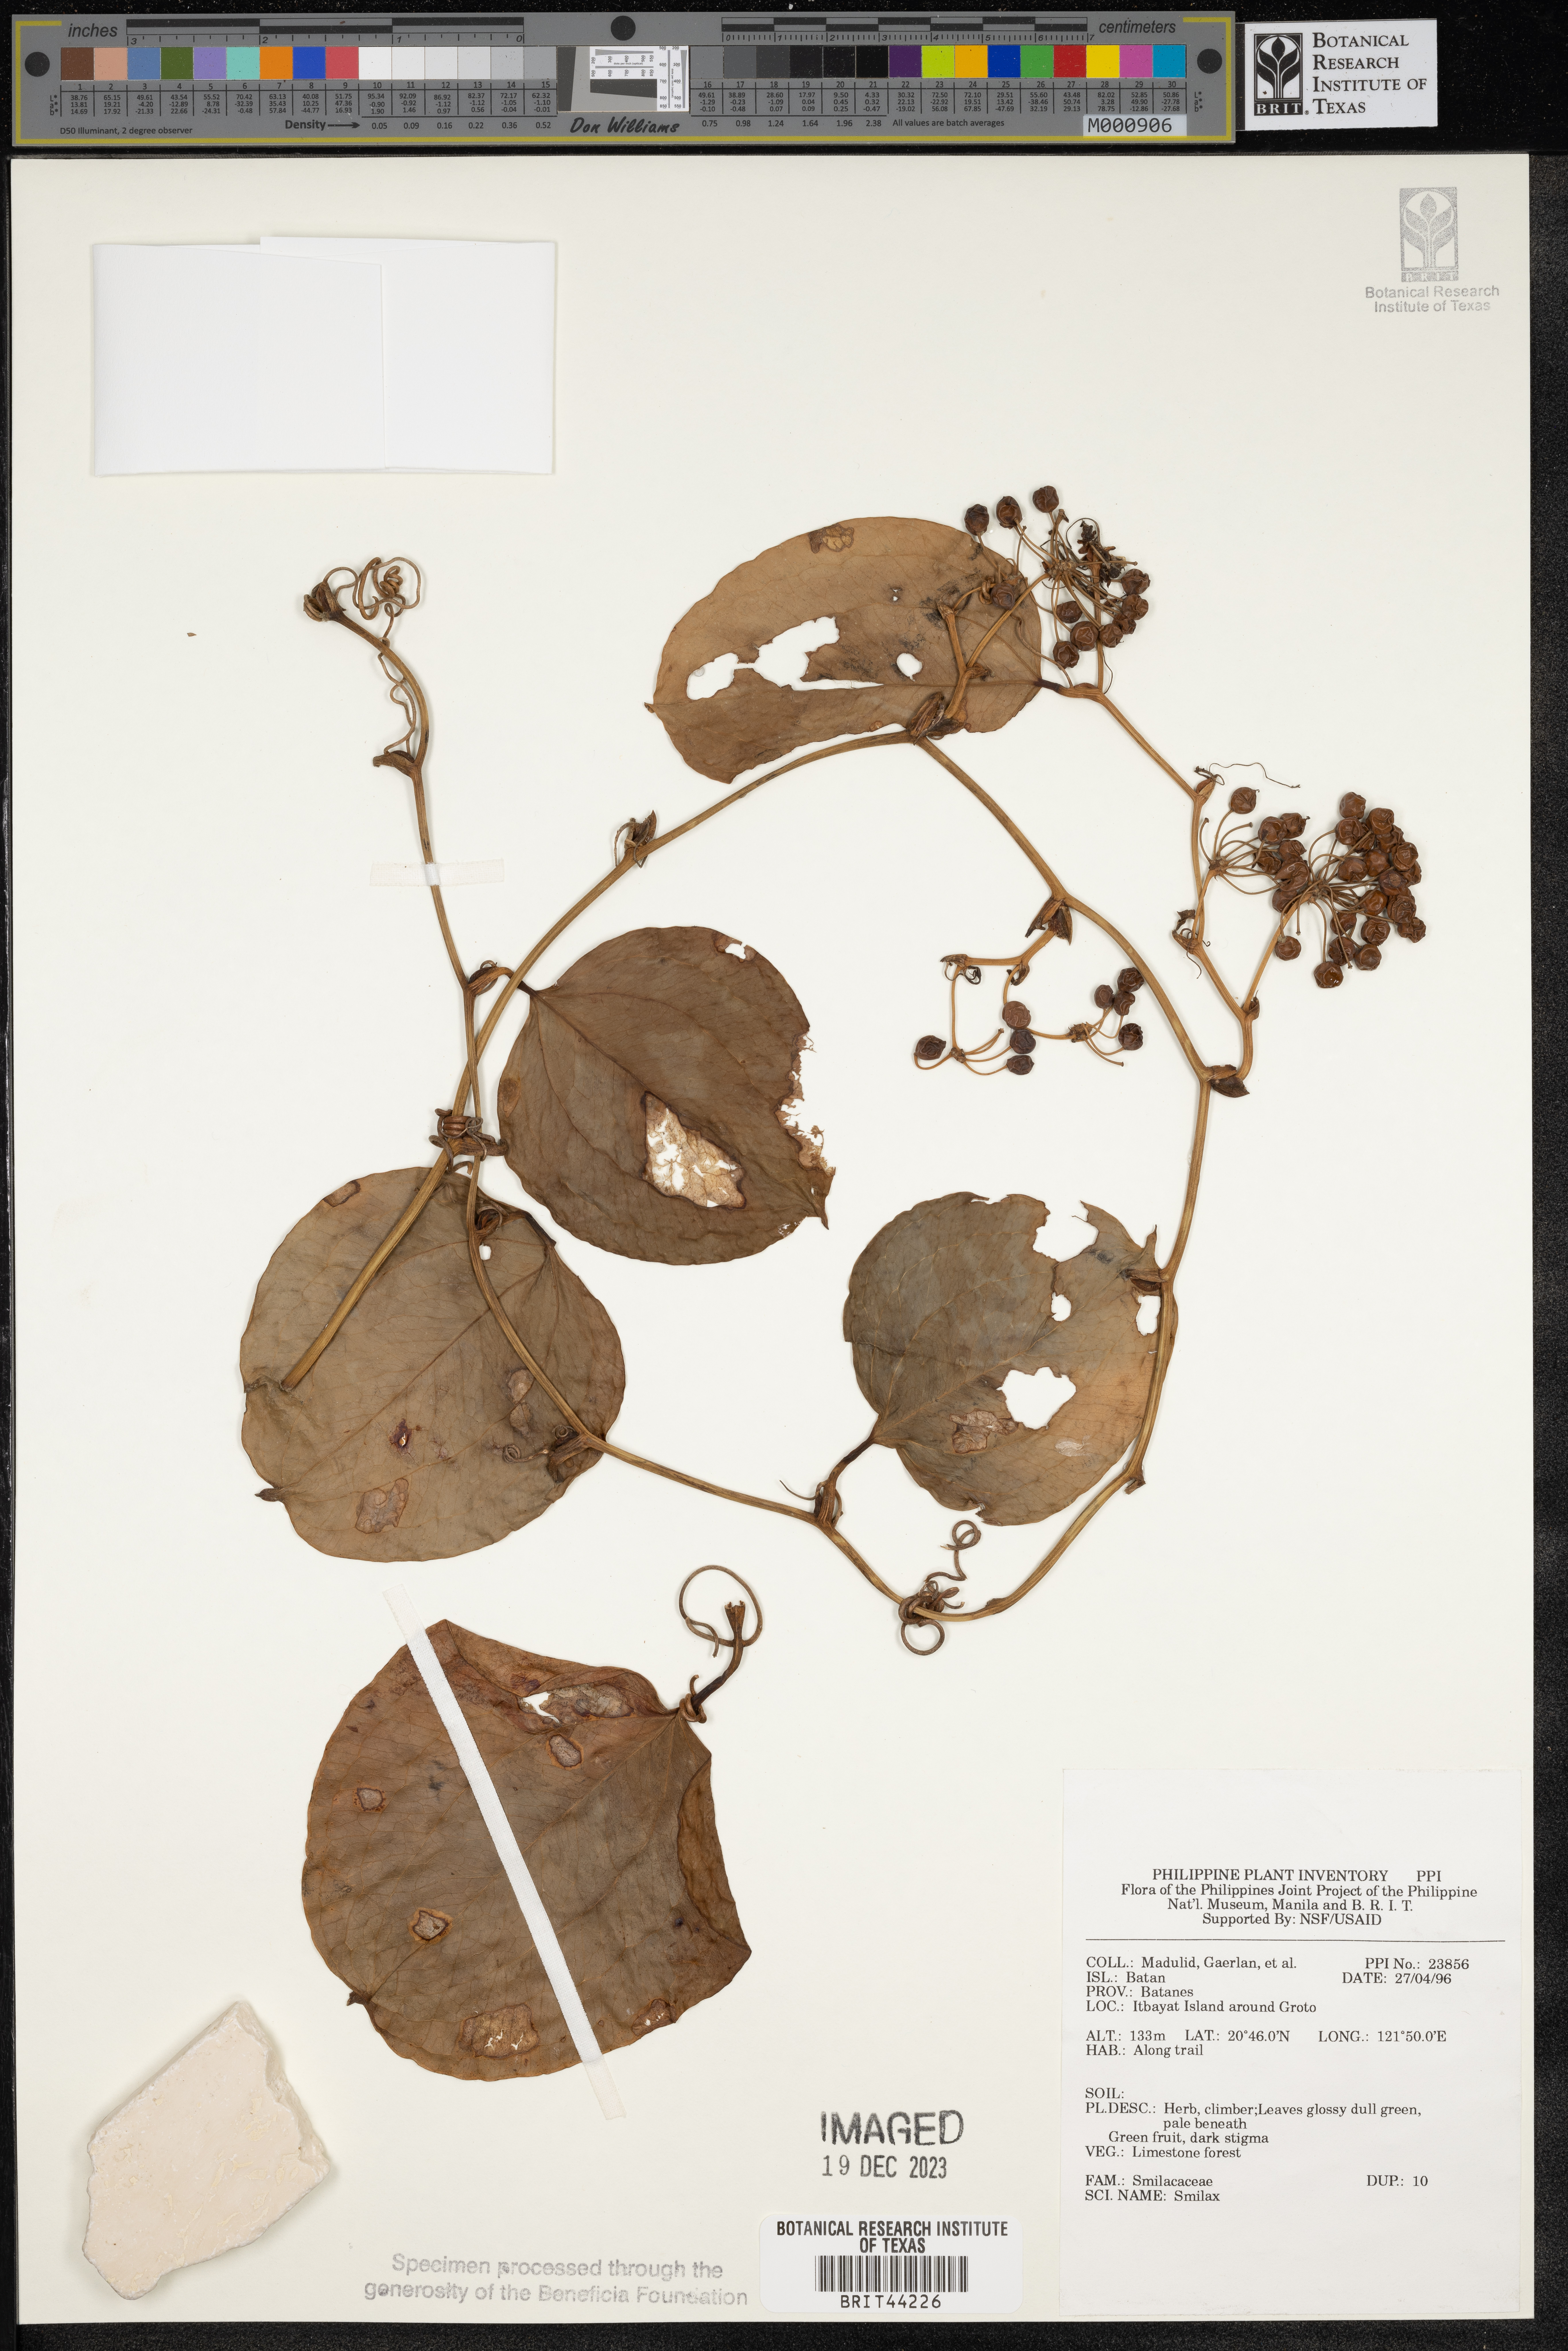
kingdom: Plantae
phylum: Tracheophyta
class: Liliopsida
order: Liliales
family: Smilacaceae
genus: Smilax
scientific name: Smilax
